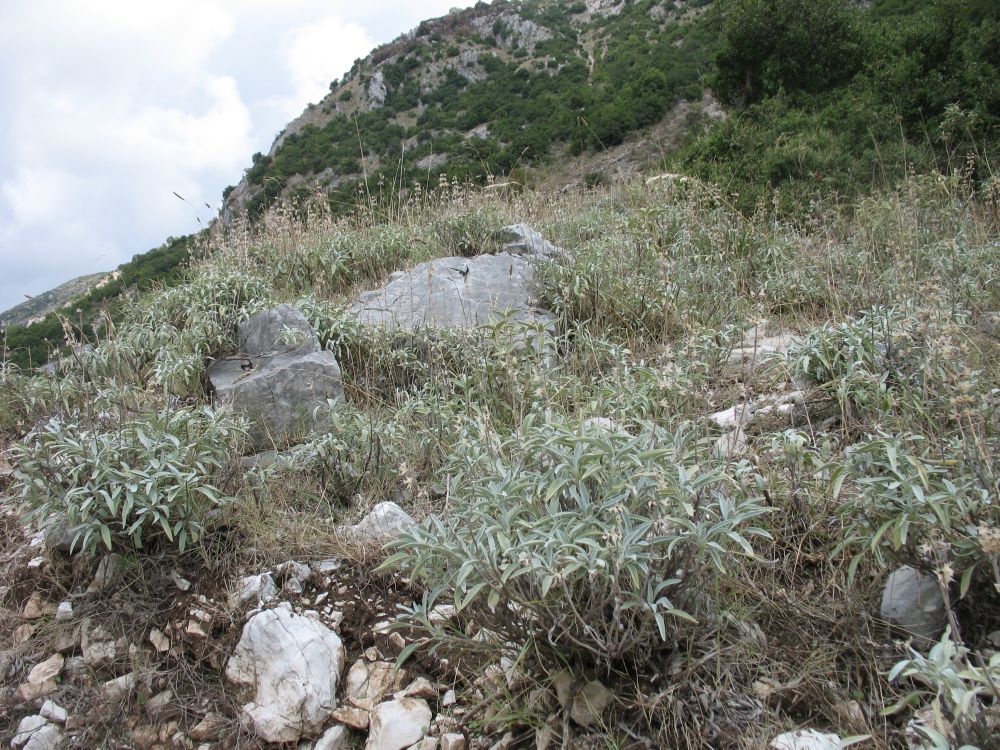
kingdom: Plantae
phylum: Tracheophyta
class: Magnoliopsida
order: Lamiales
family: Lamiaceae
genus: Salvia
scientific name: Salvia officinalis
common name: Sage
